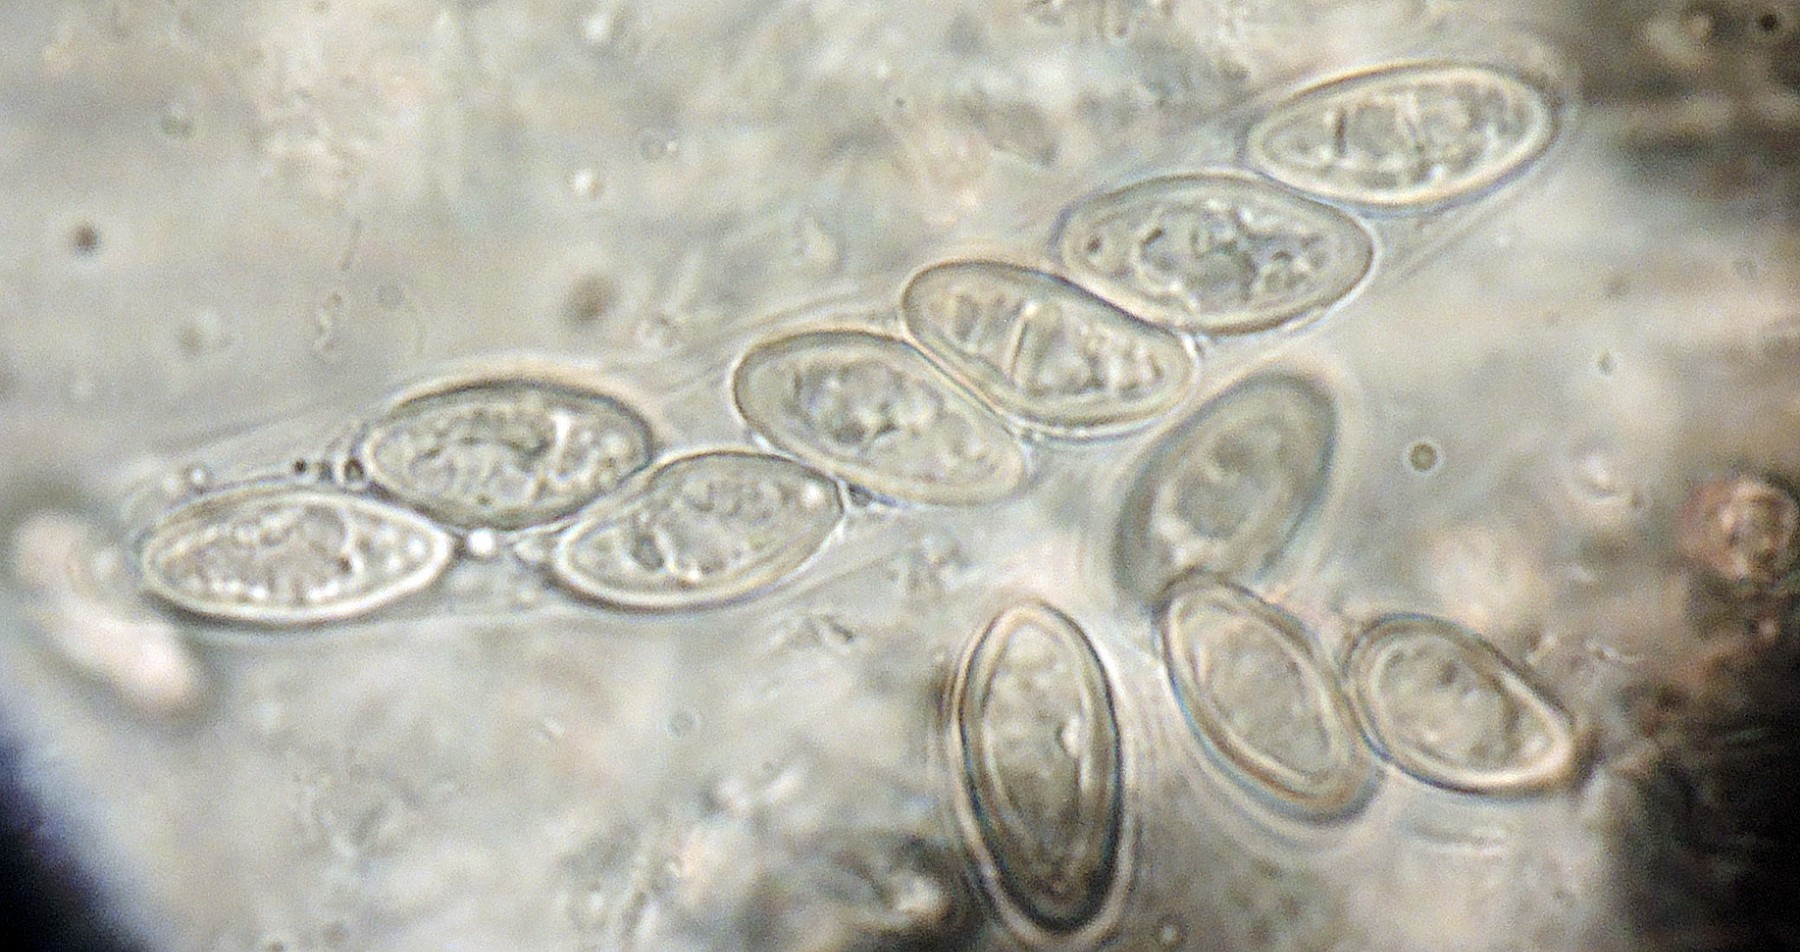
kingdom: Fungi
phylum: Ascomycota
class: Sordariomycetes
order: Boliniales
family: Boliniaceae
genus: Ceratostomella
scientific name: Ceratostomella dubia
